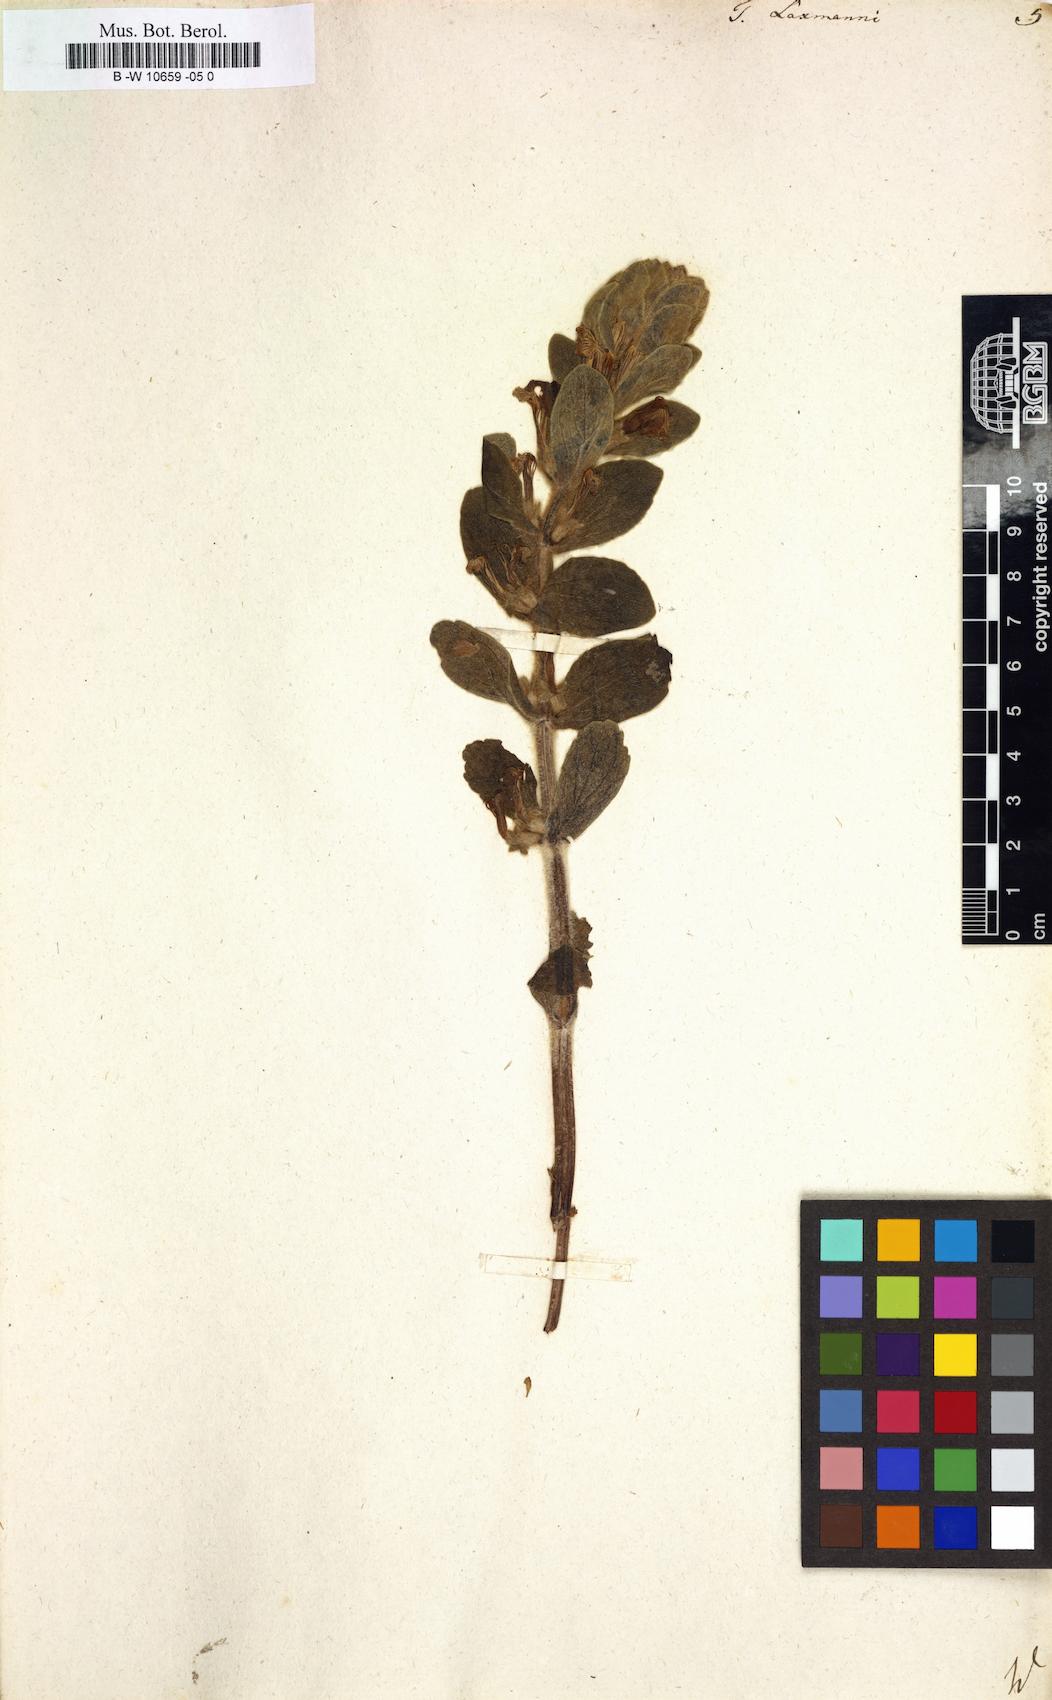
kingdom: Plantae
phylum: Tracheophyta
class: Magnoliopsida
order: Lamiales
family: Lamiaceae
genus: Ajuga
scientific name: Ajuga laxmannii
